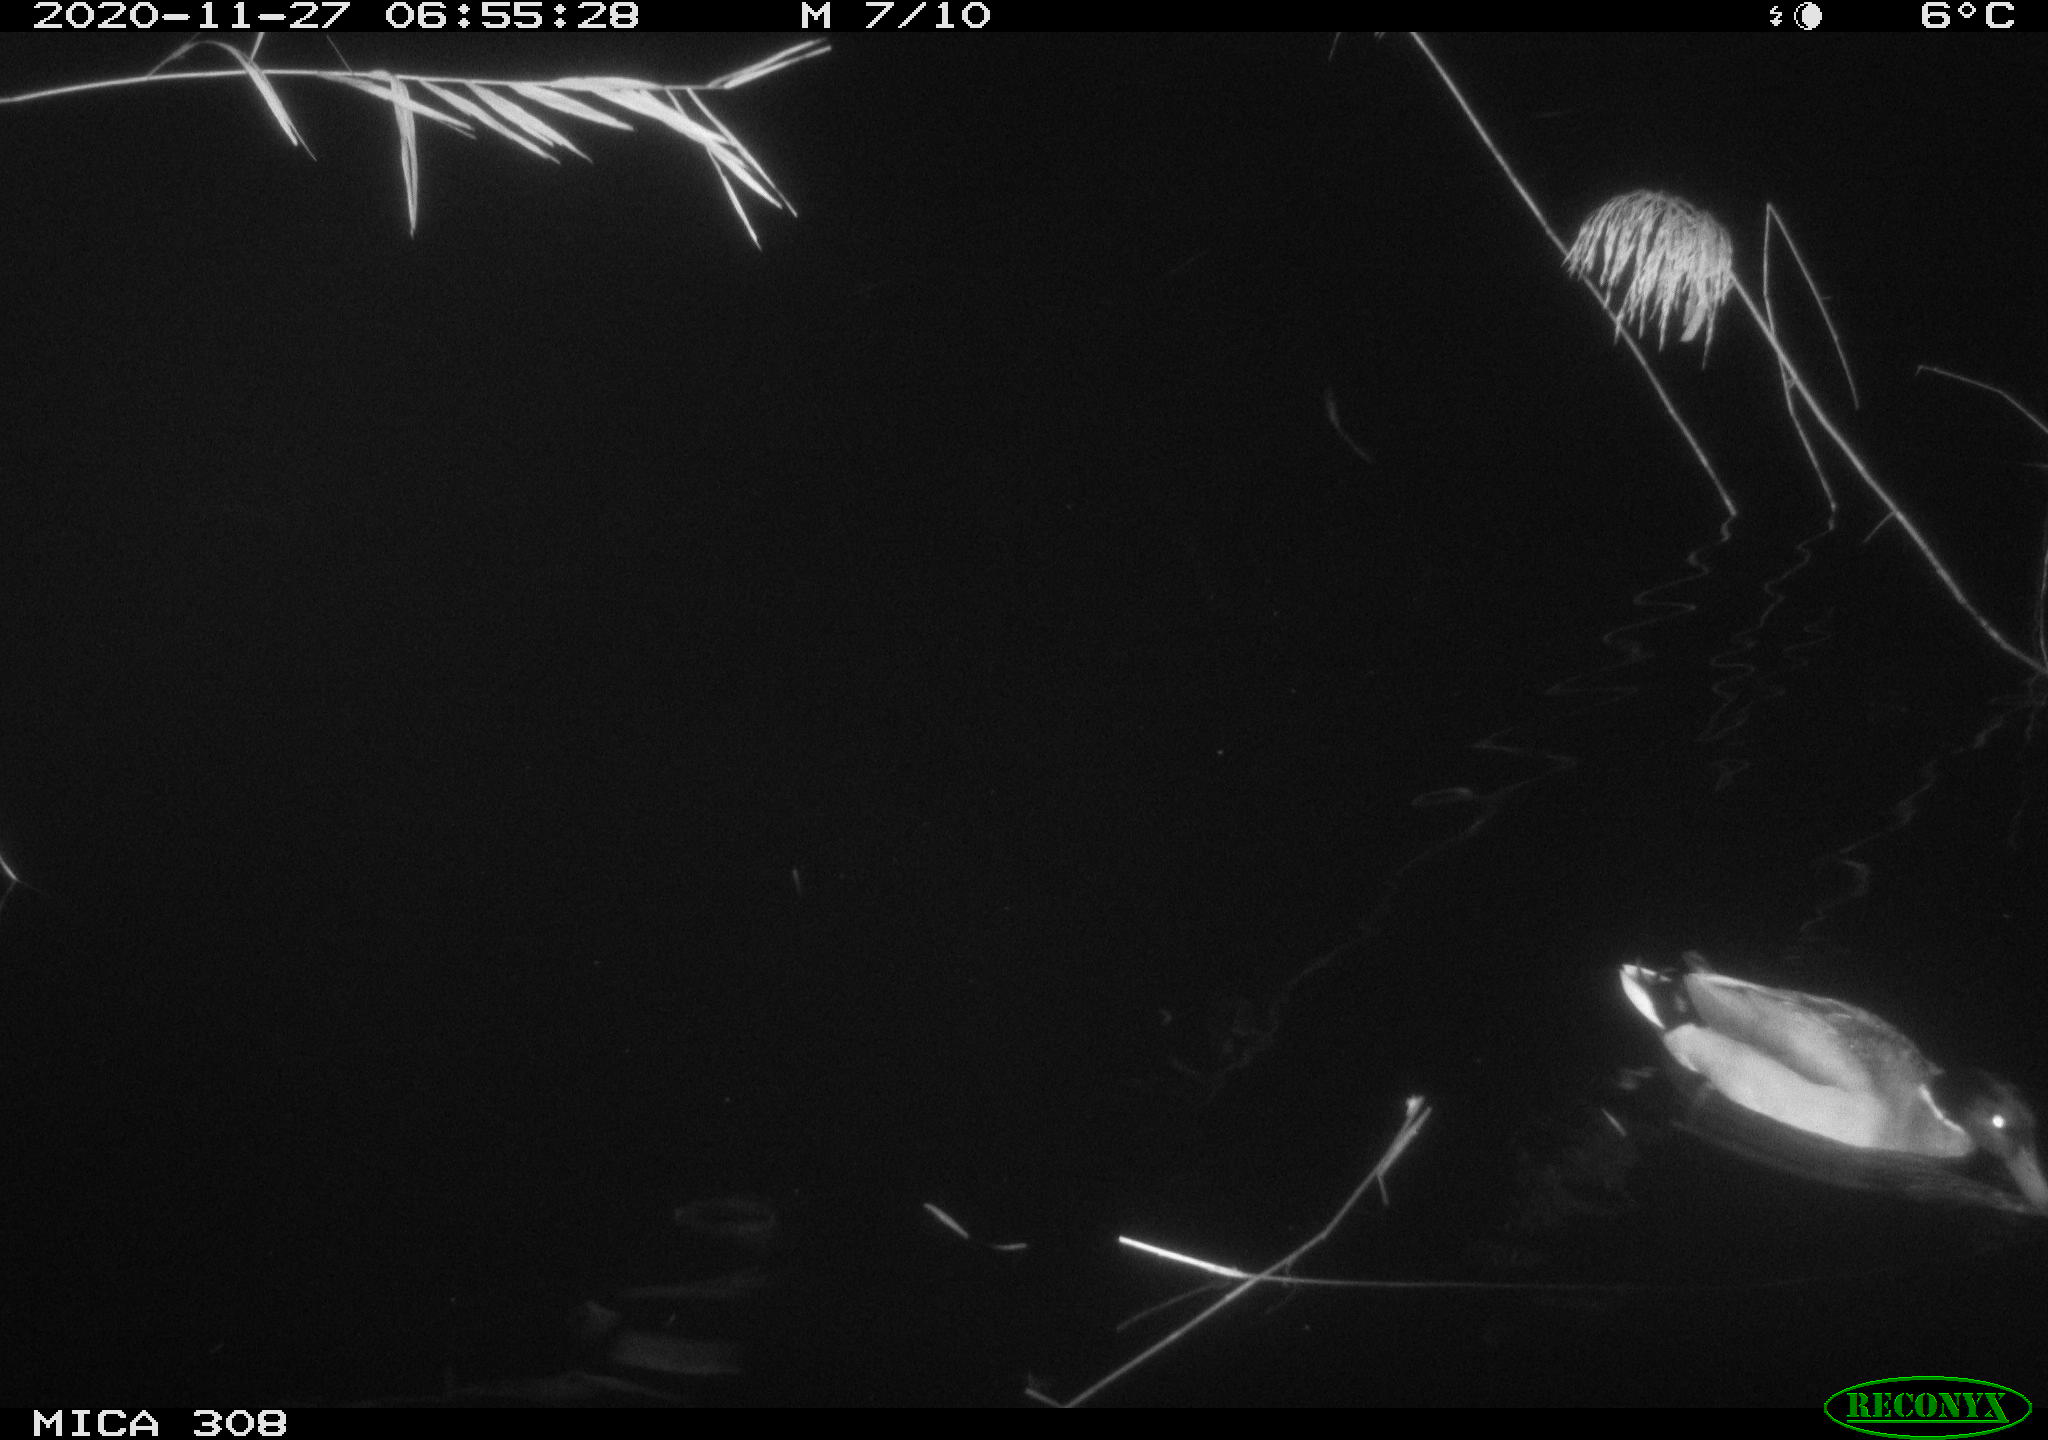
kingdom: Animalia
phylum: Chordata
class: Aves
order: Anseriformes
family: Anatidae
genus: Anas
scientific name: Anas platyrhynchos
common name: Mallard
